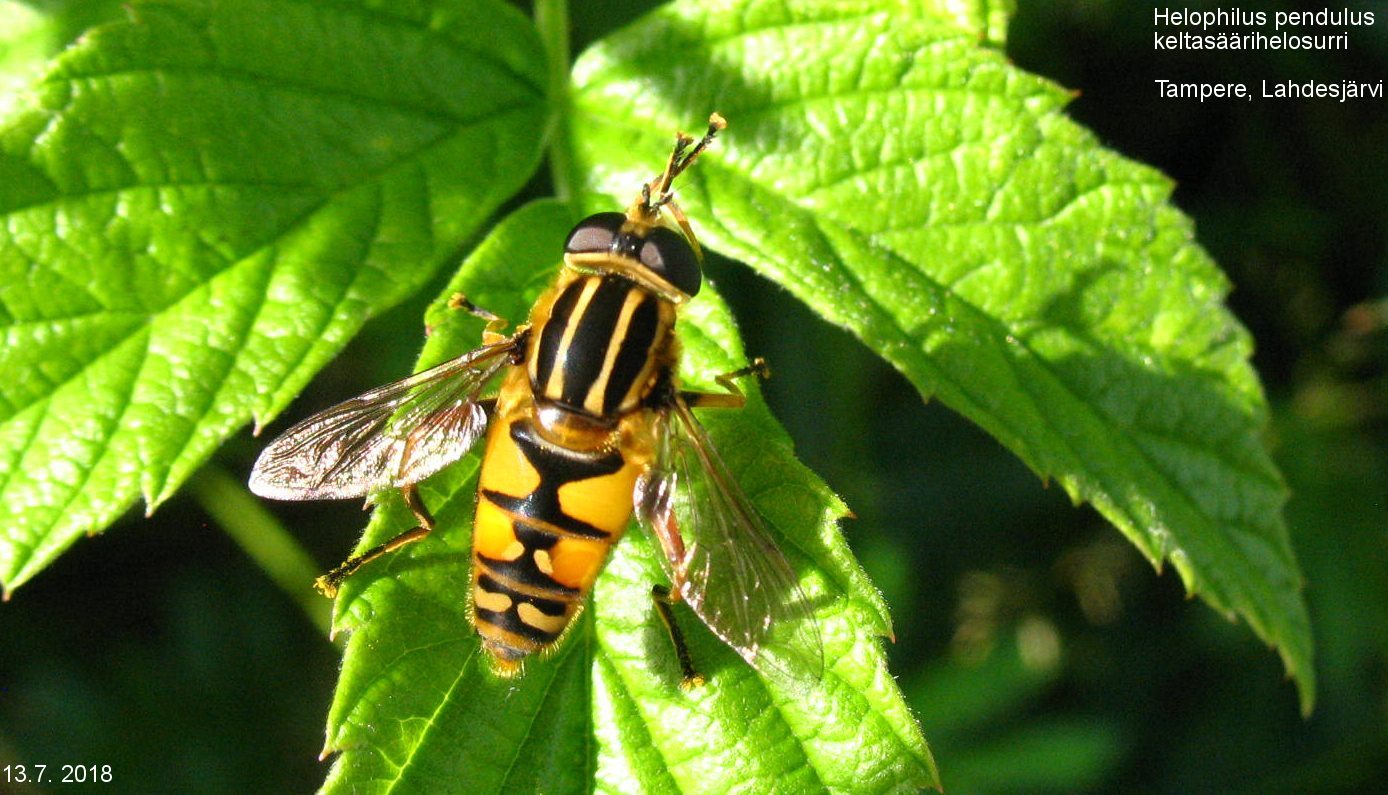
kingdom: Animalia
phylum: Arthropoda
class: Insecta
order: Diptera
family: Syrphidae
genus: Helophilus
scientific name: Helophilus pendulus
